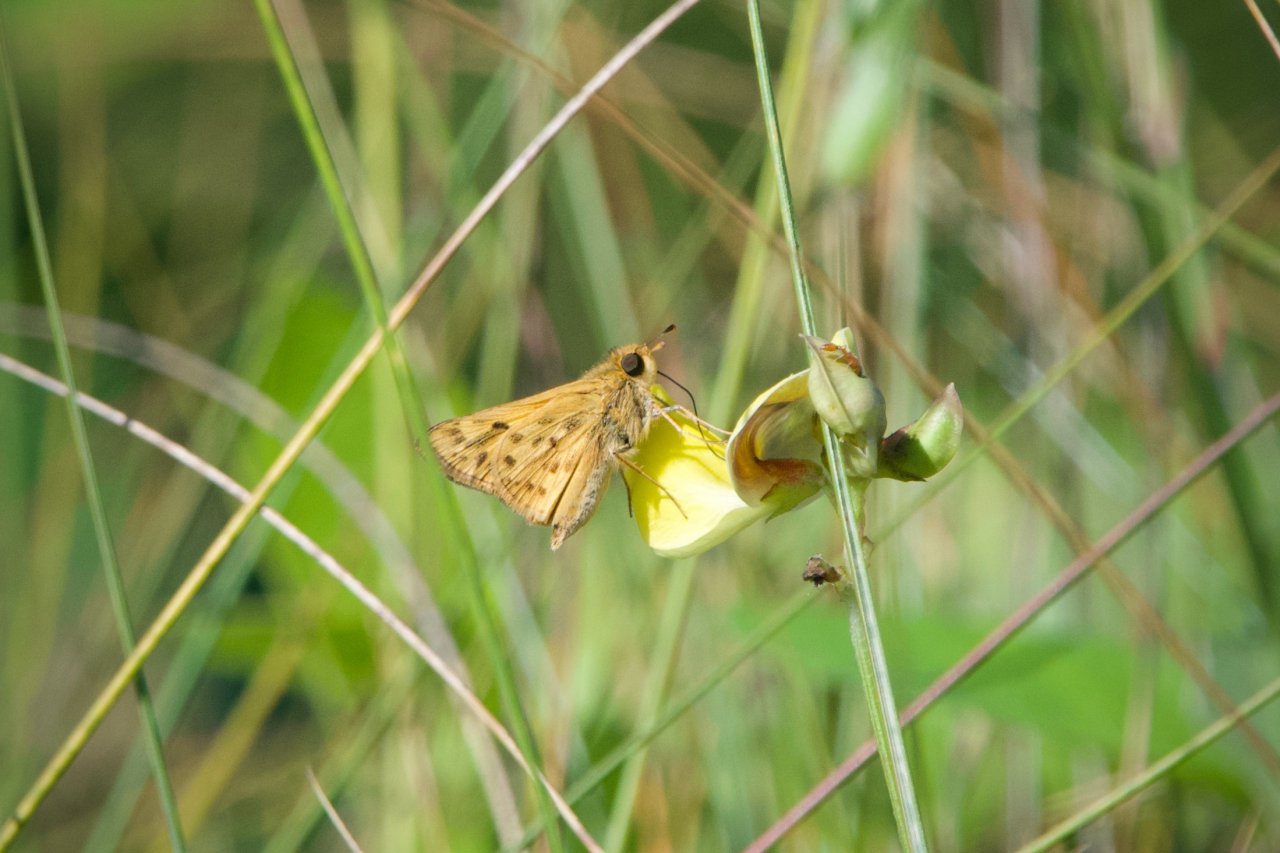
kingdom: Animalia
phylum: Arthropoda
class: Insecta
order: Lepidoptera
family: Hesperiidae
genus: Hylephila
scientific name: Hylephila phyleus
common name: Fiery Skipper
